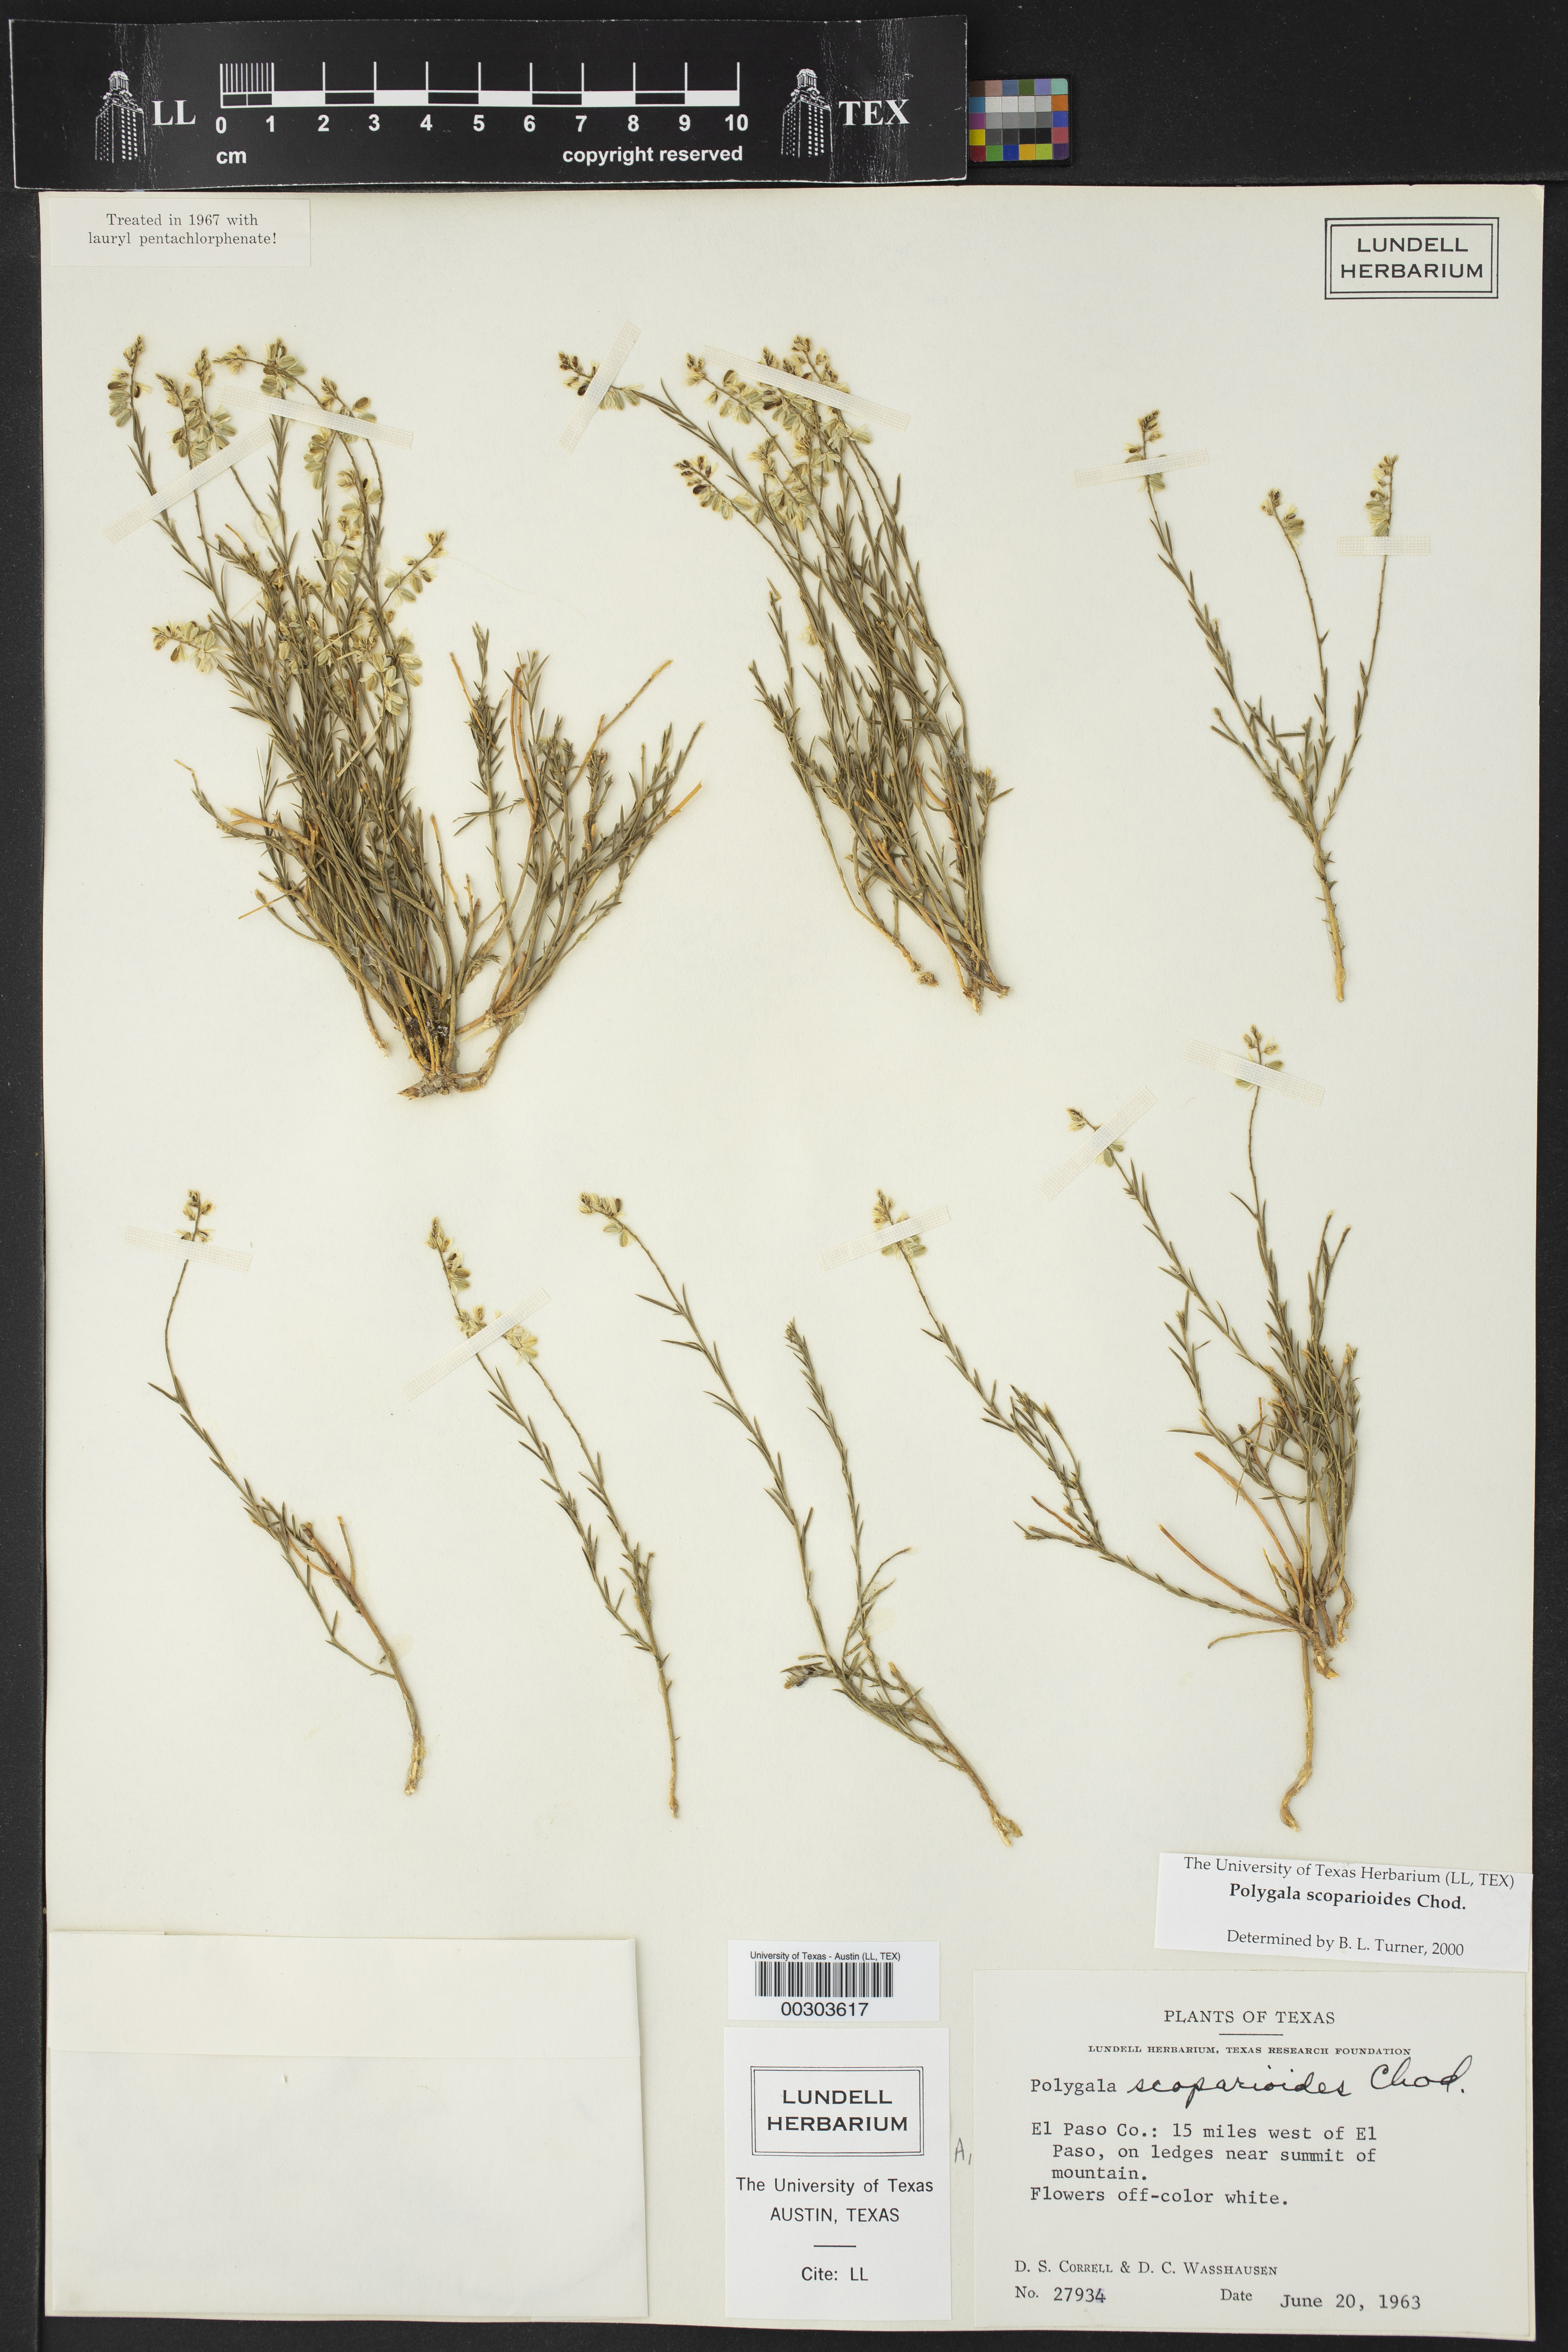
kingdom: Plantae
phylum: Tracheophyta
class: Magnoliopsida
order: Fabales
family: Polygalaceae
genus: Polygala
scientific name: Polygala scoparioides
